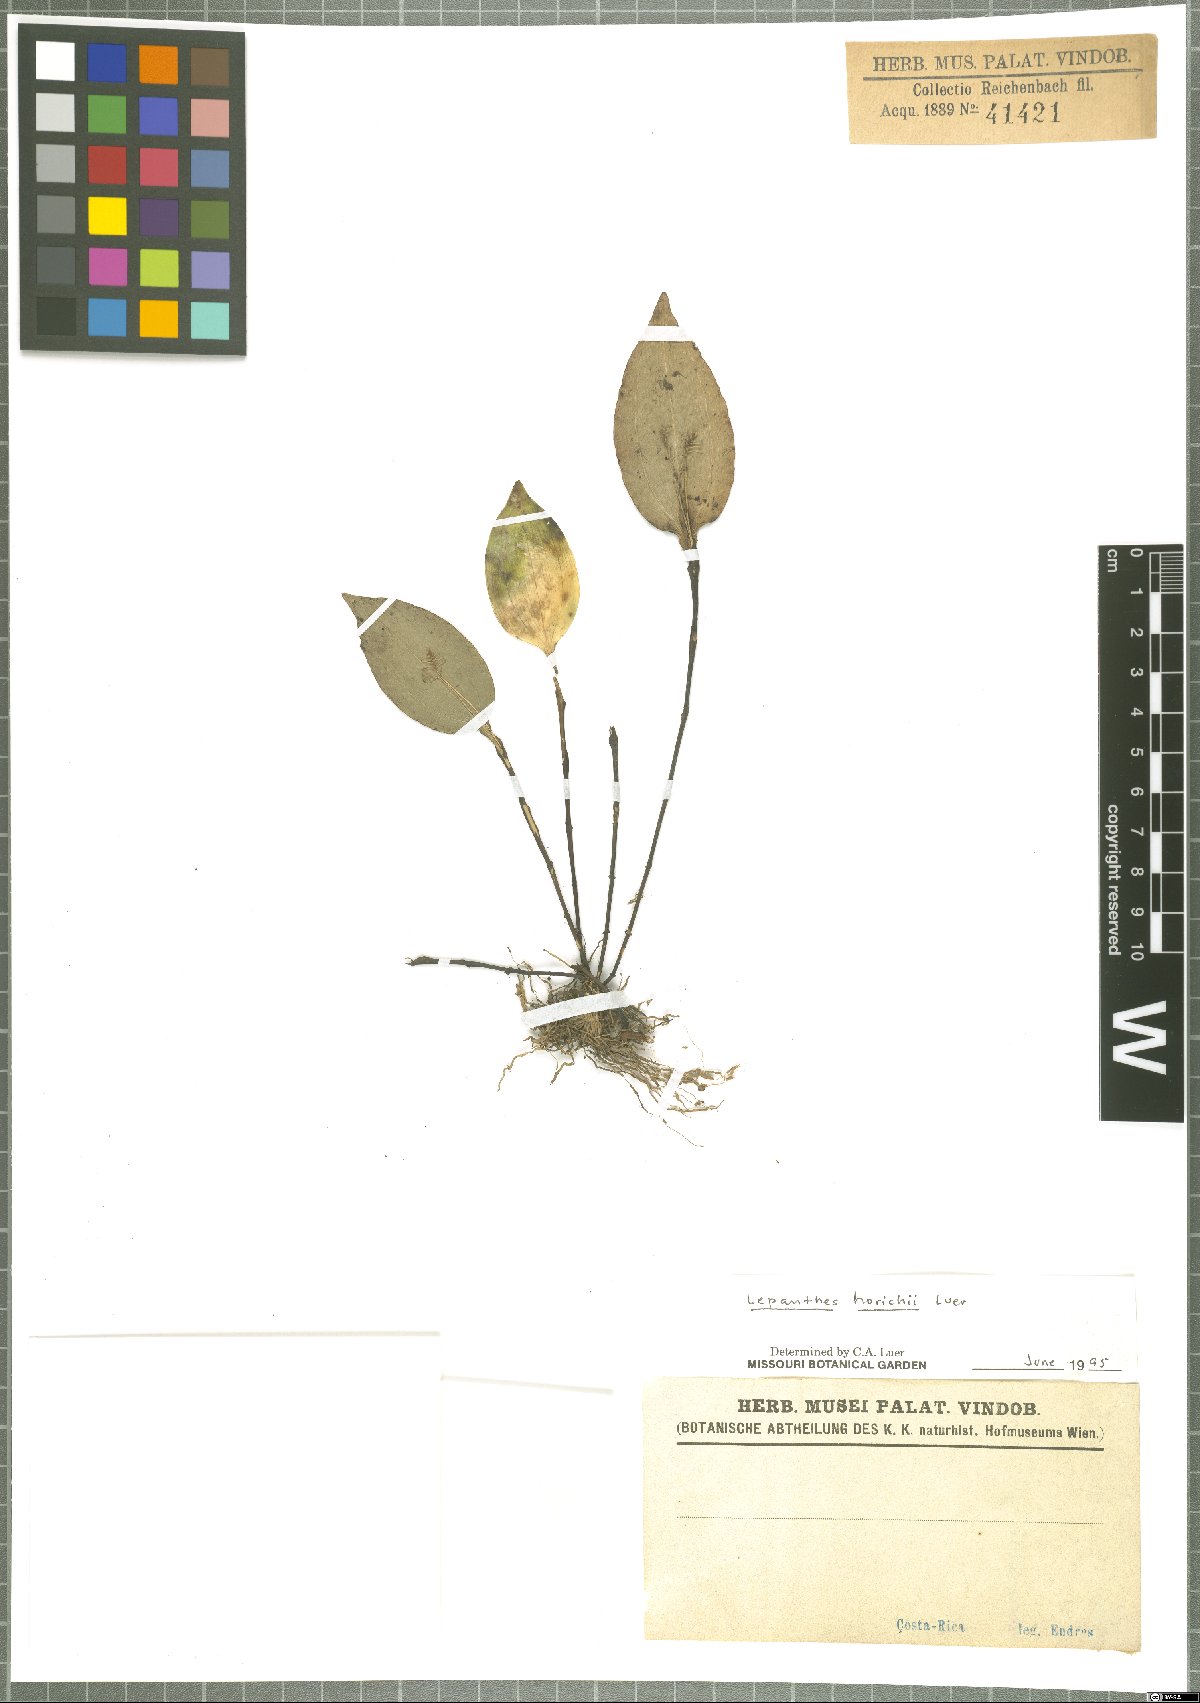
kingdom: Plantae
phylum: Tracheophyta
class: Liliopsida
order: Asparagales
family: Orchidaceae
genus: Lepanthes
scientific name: Lepanthes horichii
